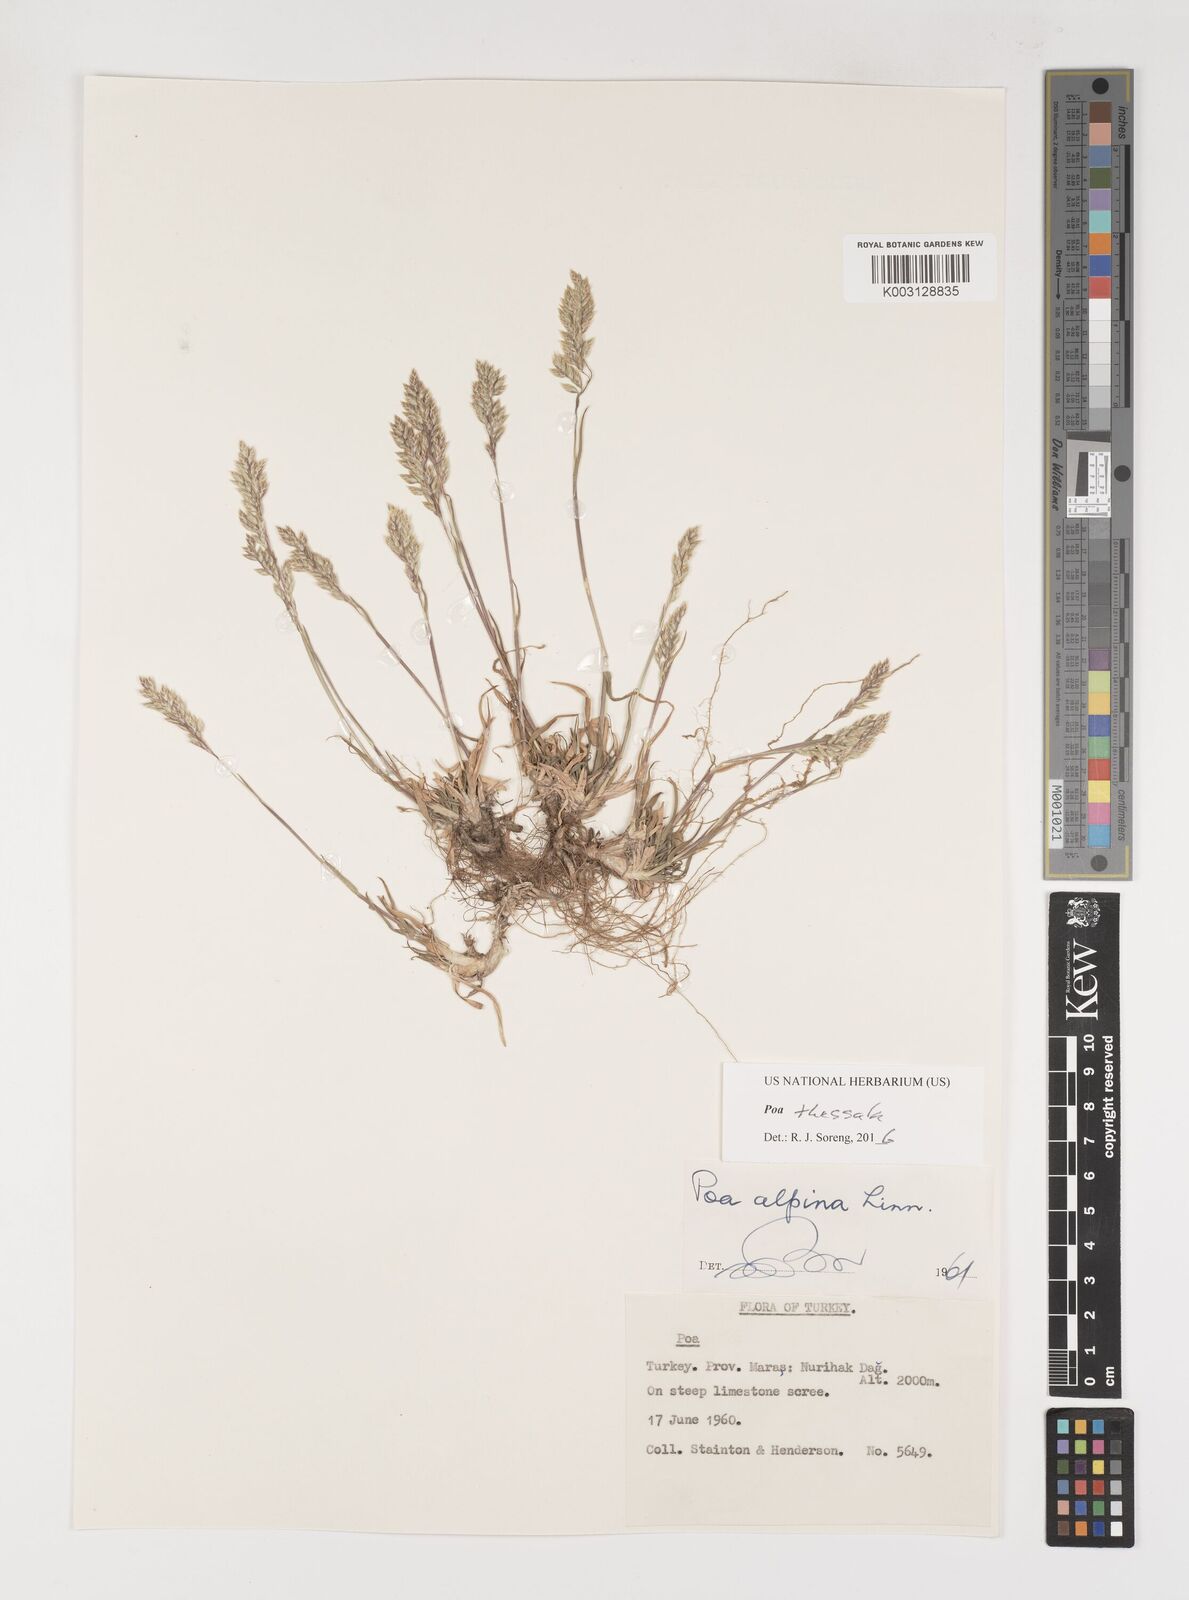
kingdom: Plantae
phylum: Tracheophyta
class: Liliopsida
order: Poales
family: Poaceae
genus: Poa
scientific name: Poa thessala
